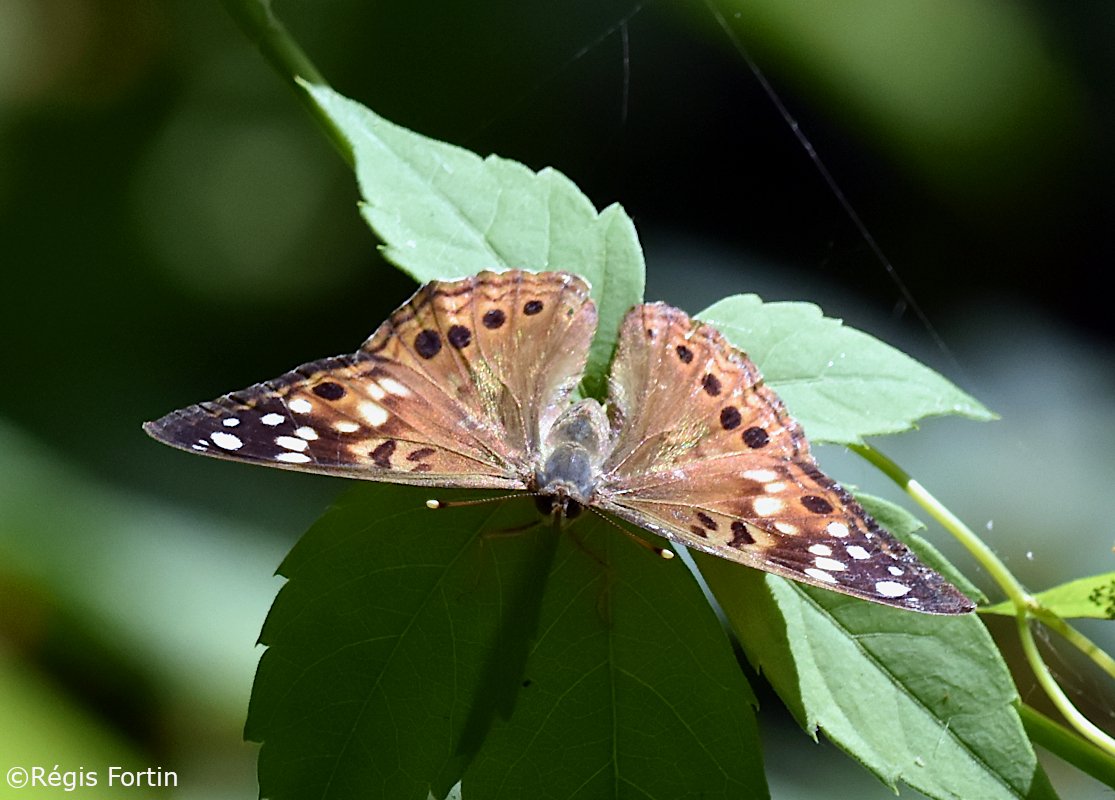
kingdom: Animalia
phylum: Arthropoda
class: Insecta
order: Lepidoptera
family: Nymphalidae
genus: Asterocampa
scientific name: Asterocampa celtis
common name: Hackberry Emperor
